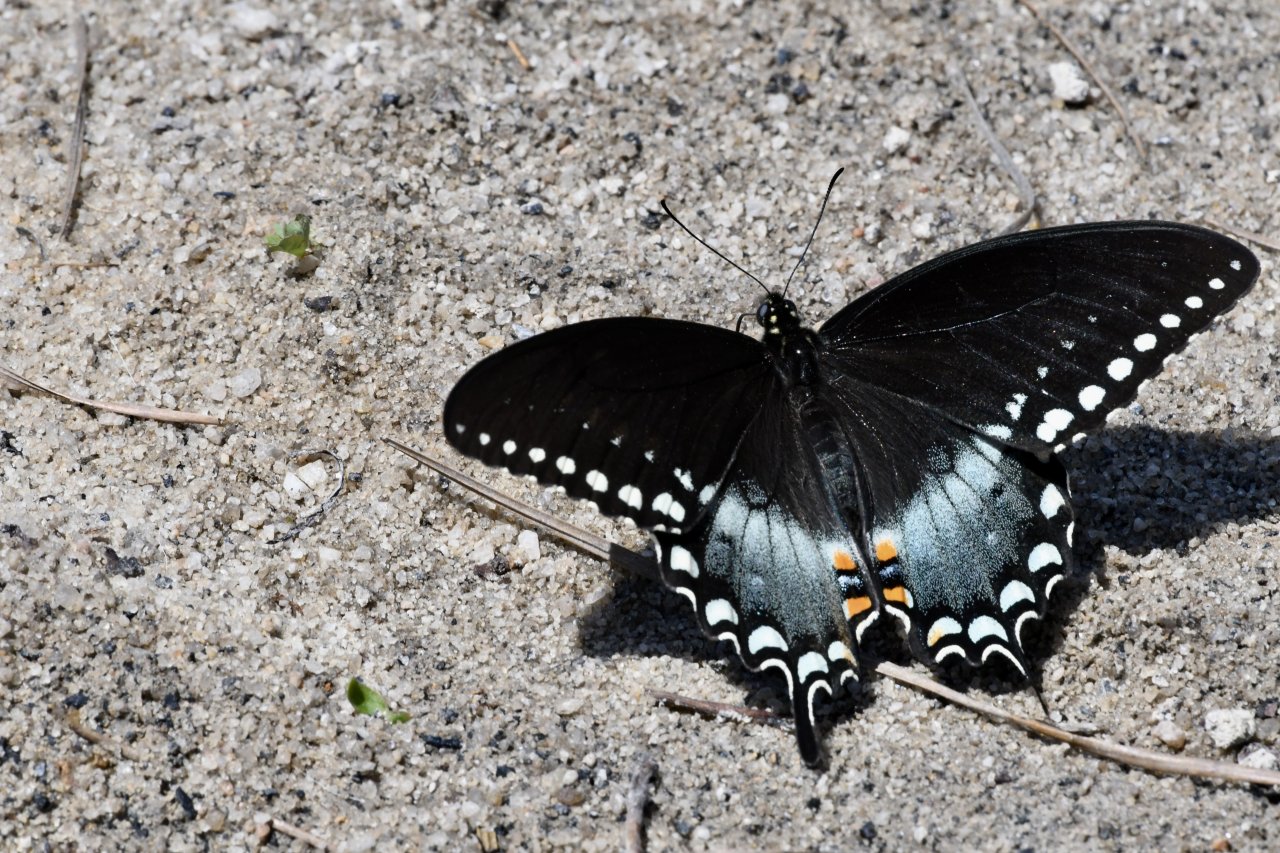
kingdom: Animalia
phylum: Arthropoda
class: Insecta
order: Lepidoptera
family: Papilionidae
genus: Pterourus
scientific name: Pterourus troilus
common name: Spicebush Swallowtail
